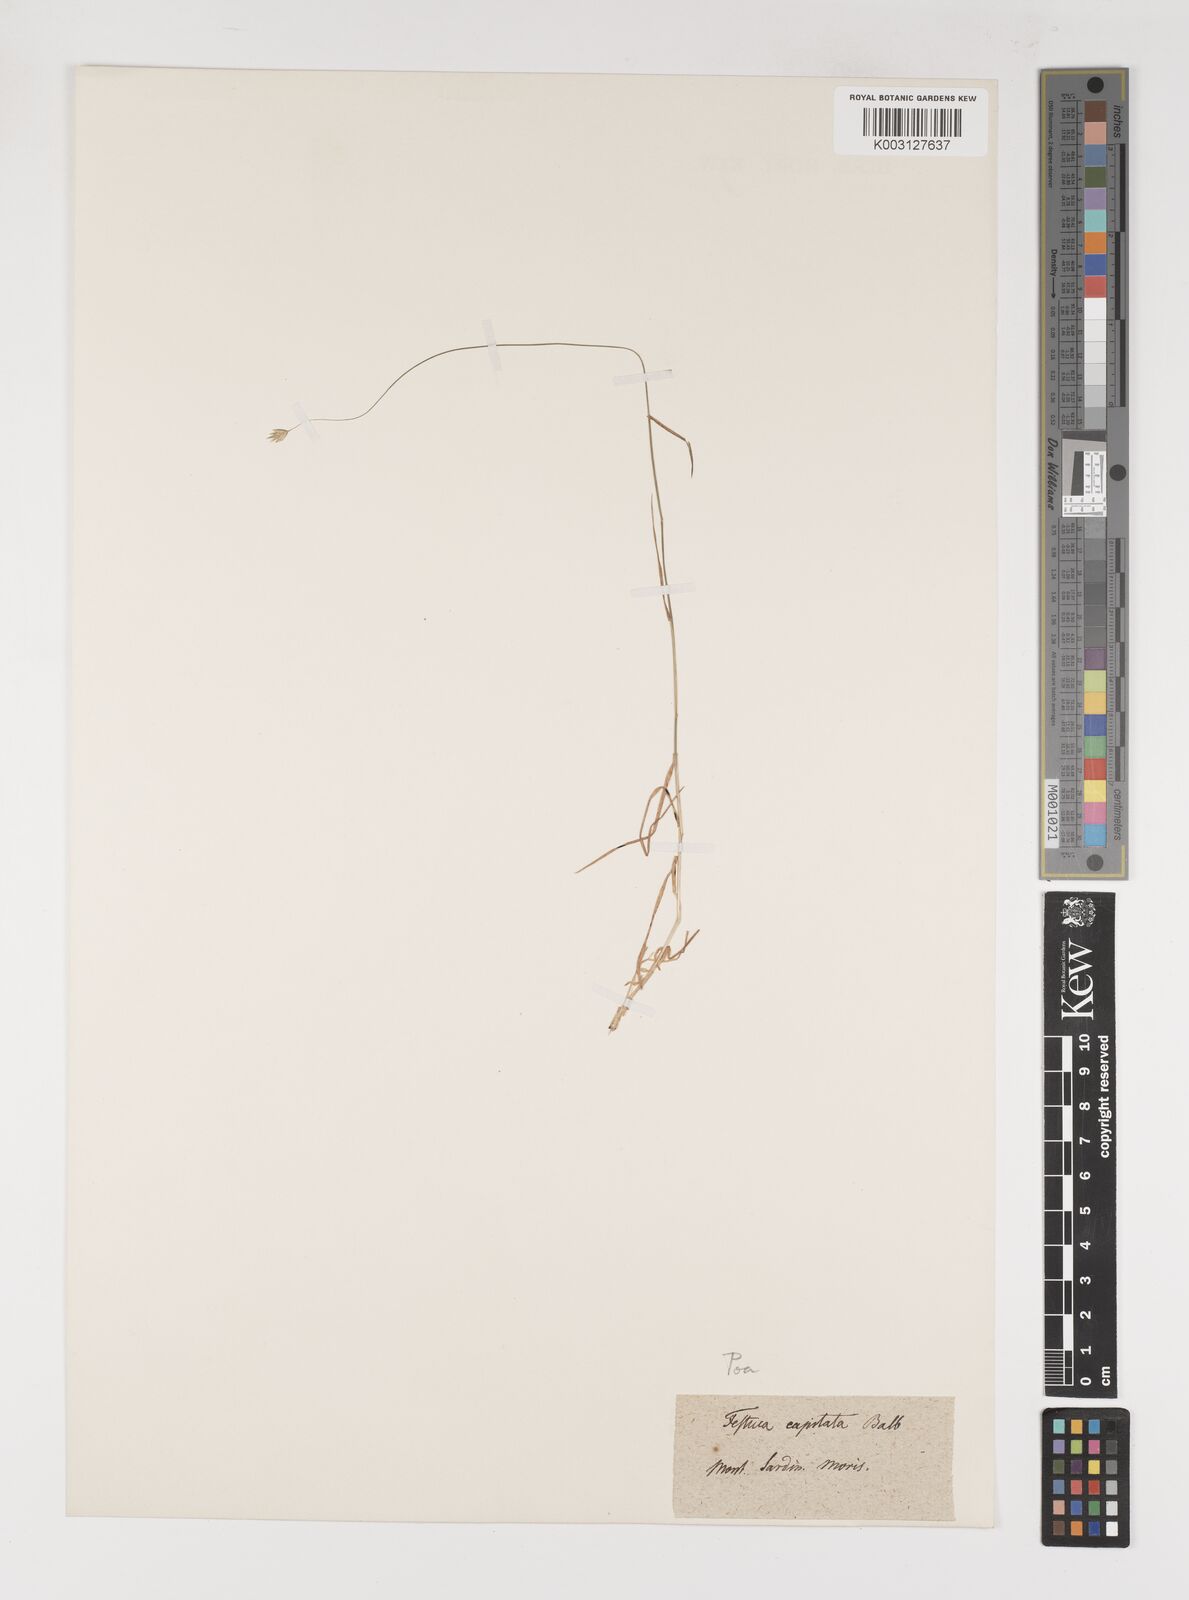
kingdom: Plantae
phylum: Tracheophyta
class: Liliopsida
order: Poales
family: Poaceae
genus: Poa
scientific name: Poa
